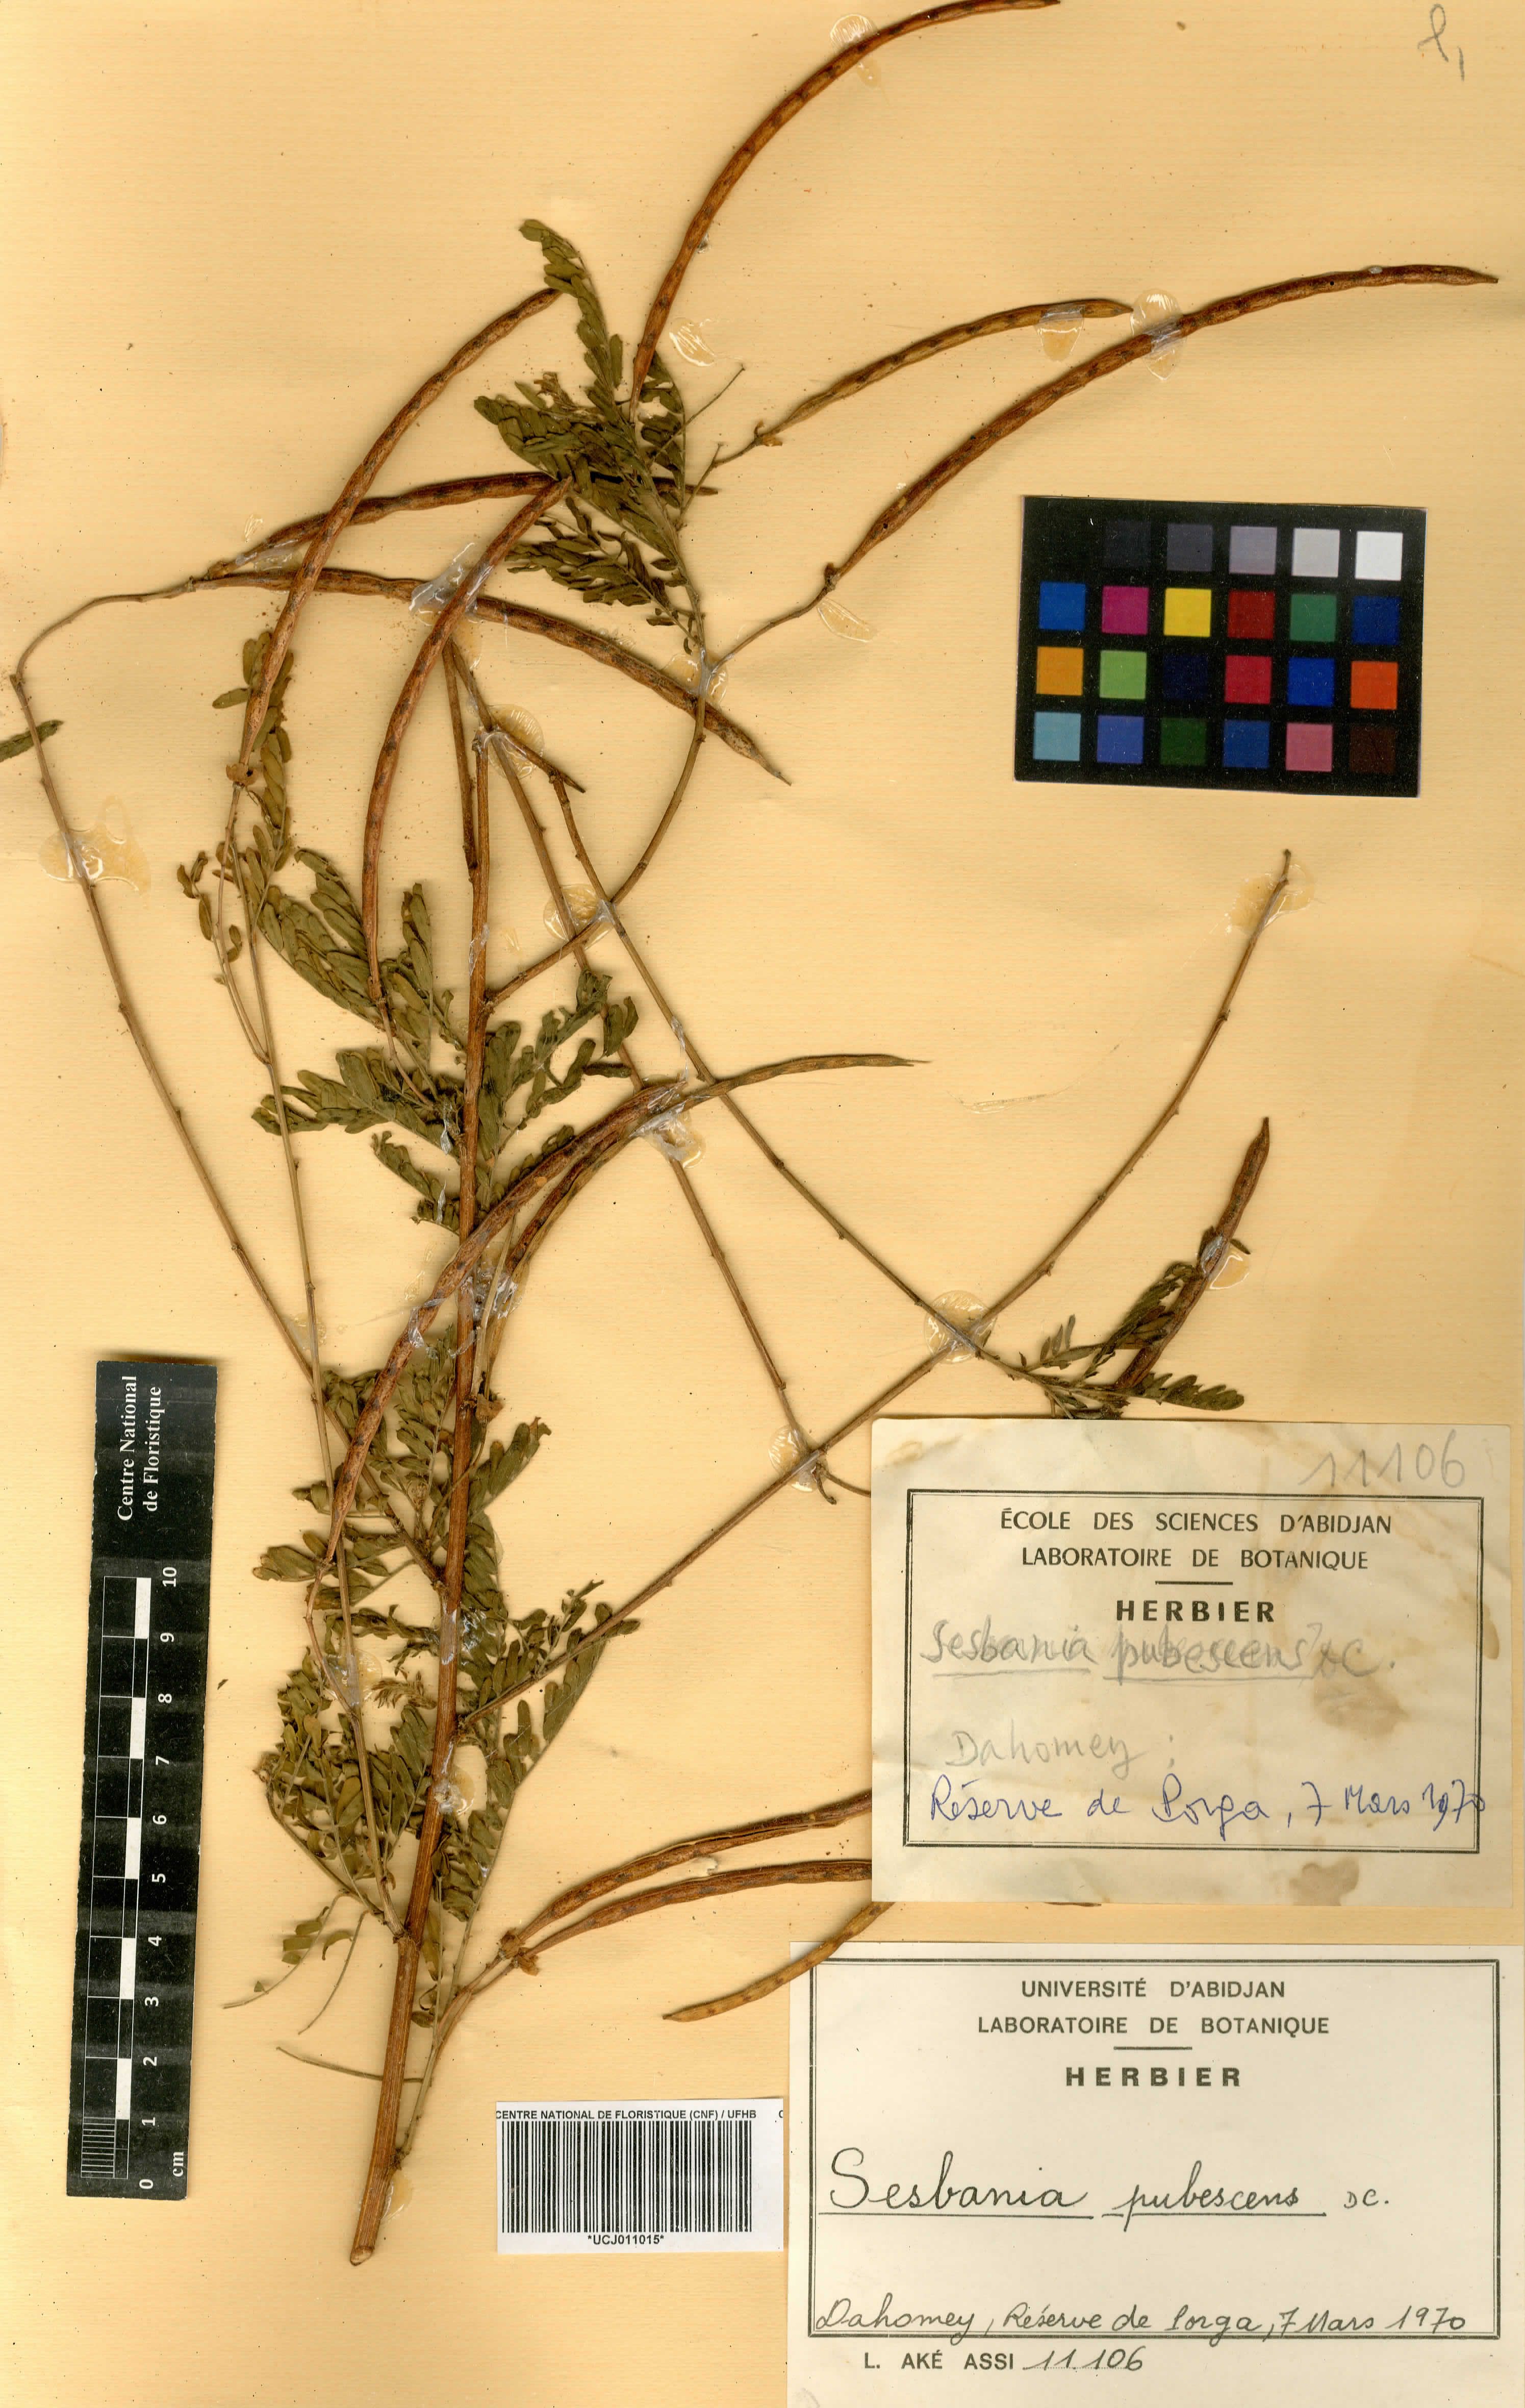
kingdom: Plantae
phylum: Tracheophyta
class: Magnoliopsida
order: Fabales
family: Fabaceae
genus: Sesbania
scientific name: Sesbania sericea
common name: Papagayo
